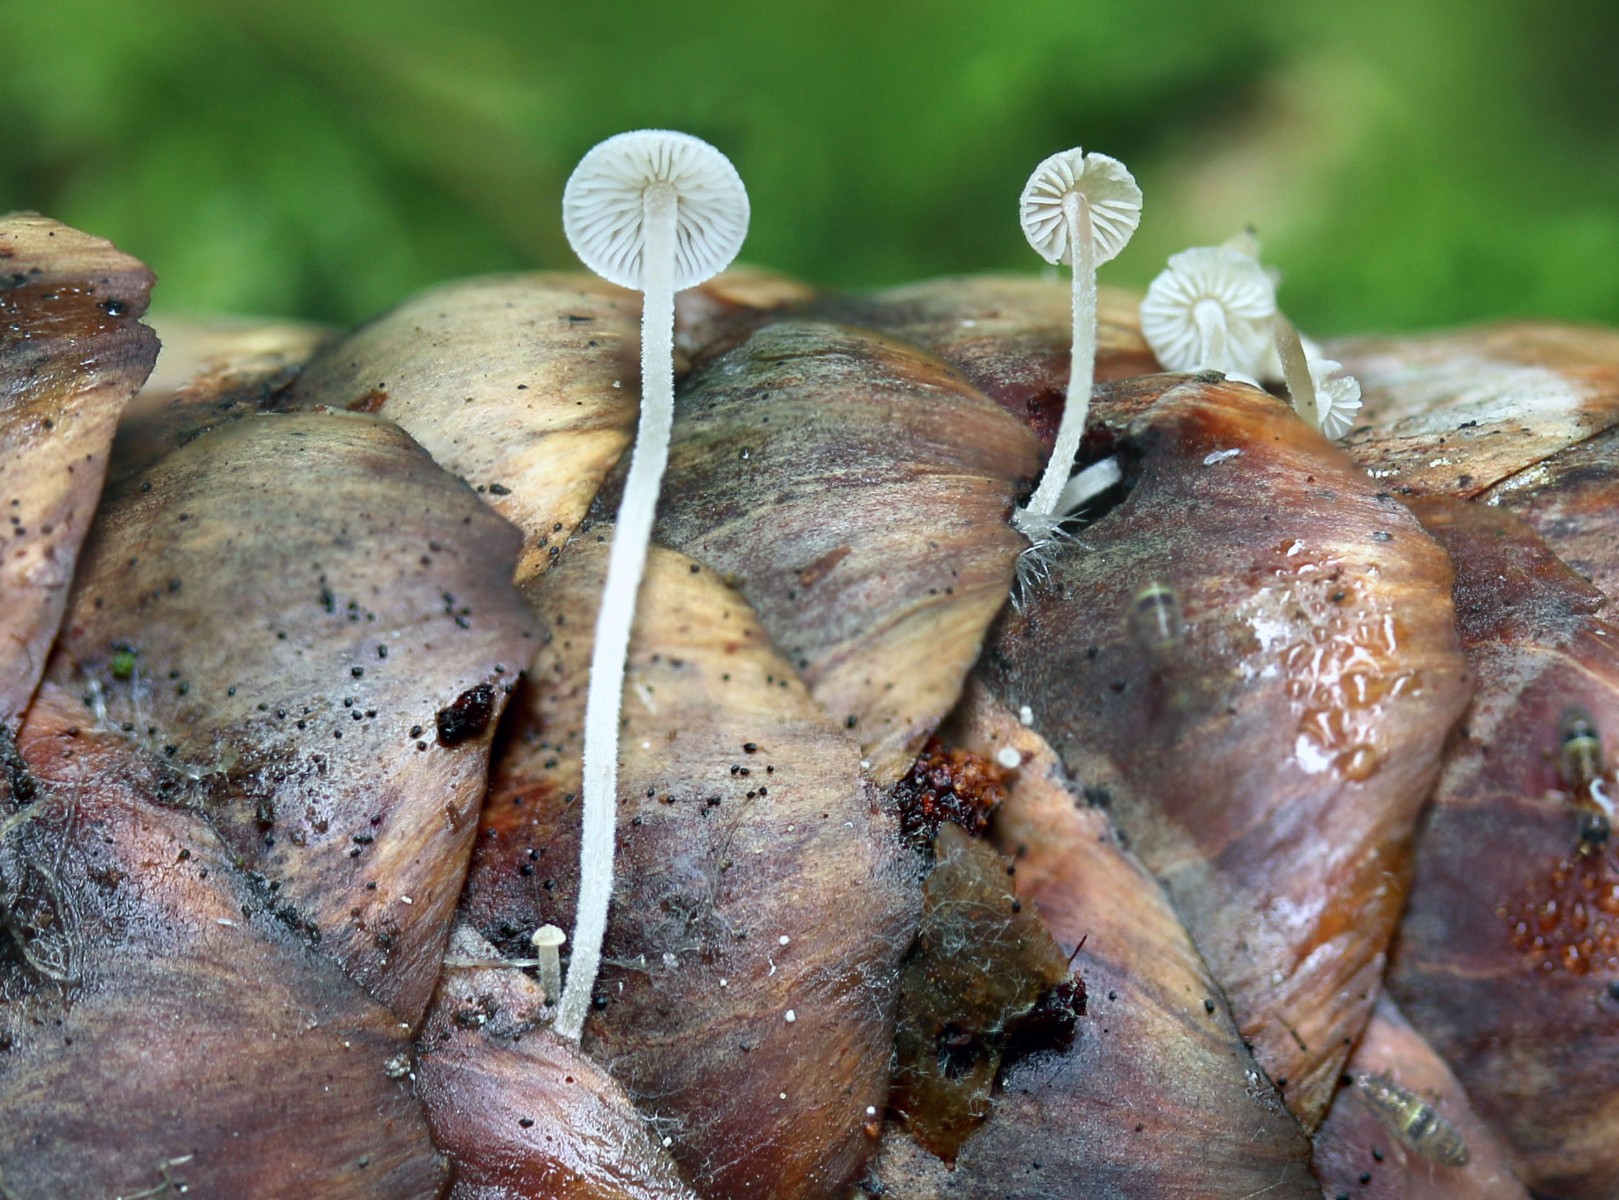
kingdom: Fungi
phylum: Basidiomycota
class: Agaricomycetes
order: Agaricales
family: Mycenaceae
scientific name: Mycenaceae
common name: huesvampfamilien
